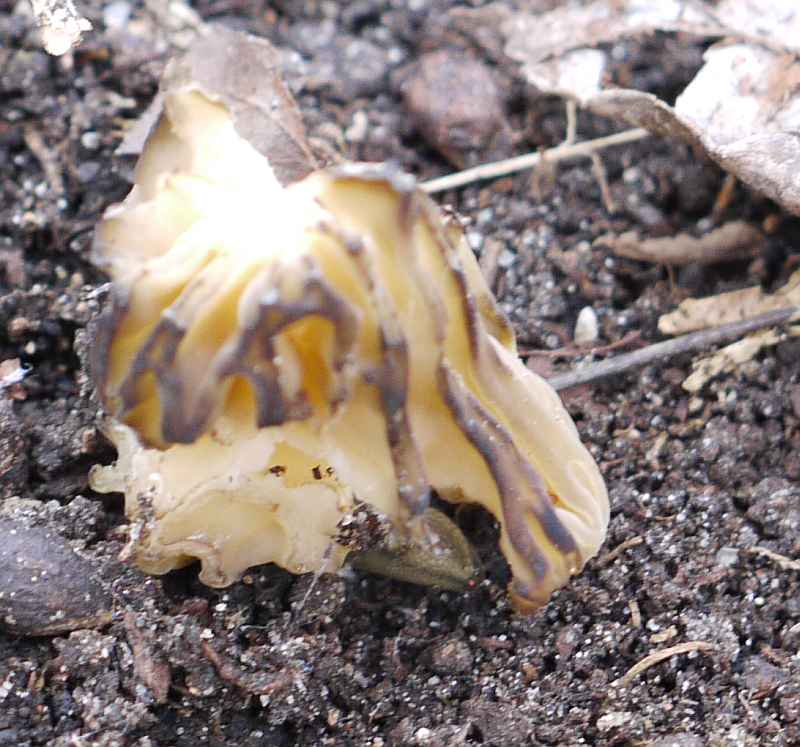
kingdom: Fungi
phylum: Ascomycota
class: Pezizomycetes
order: Pezizales
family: Morchellaceae
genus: Morchella
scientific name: Morchella semilibera
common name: hætte-morkel
